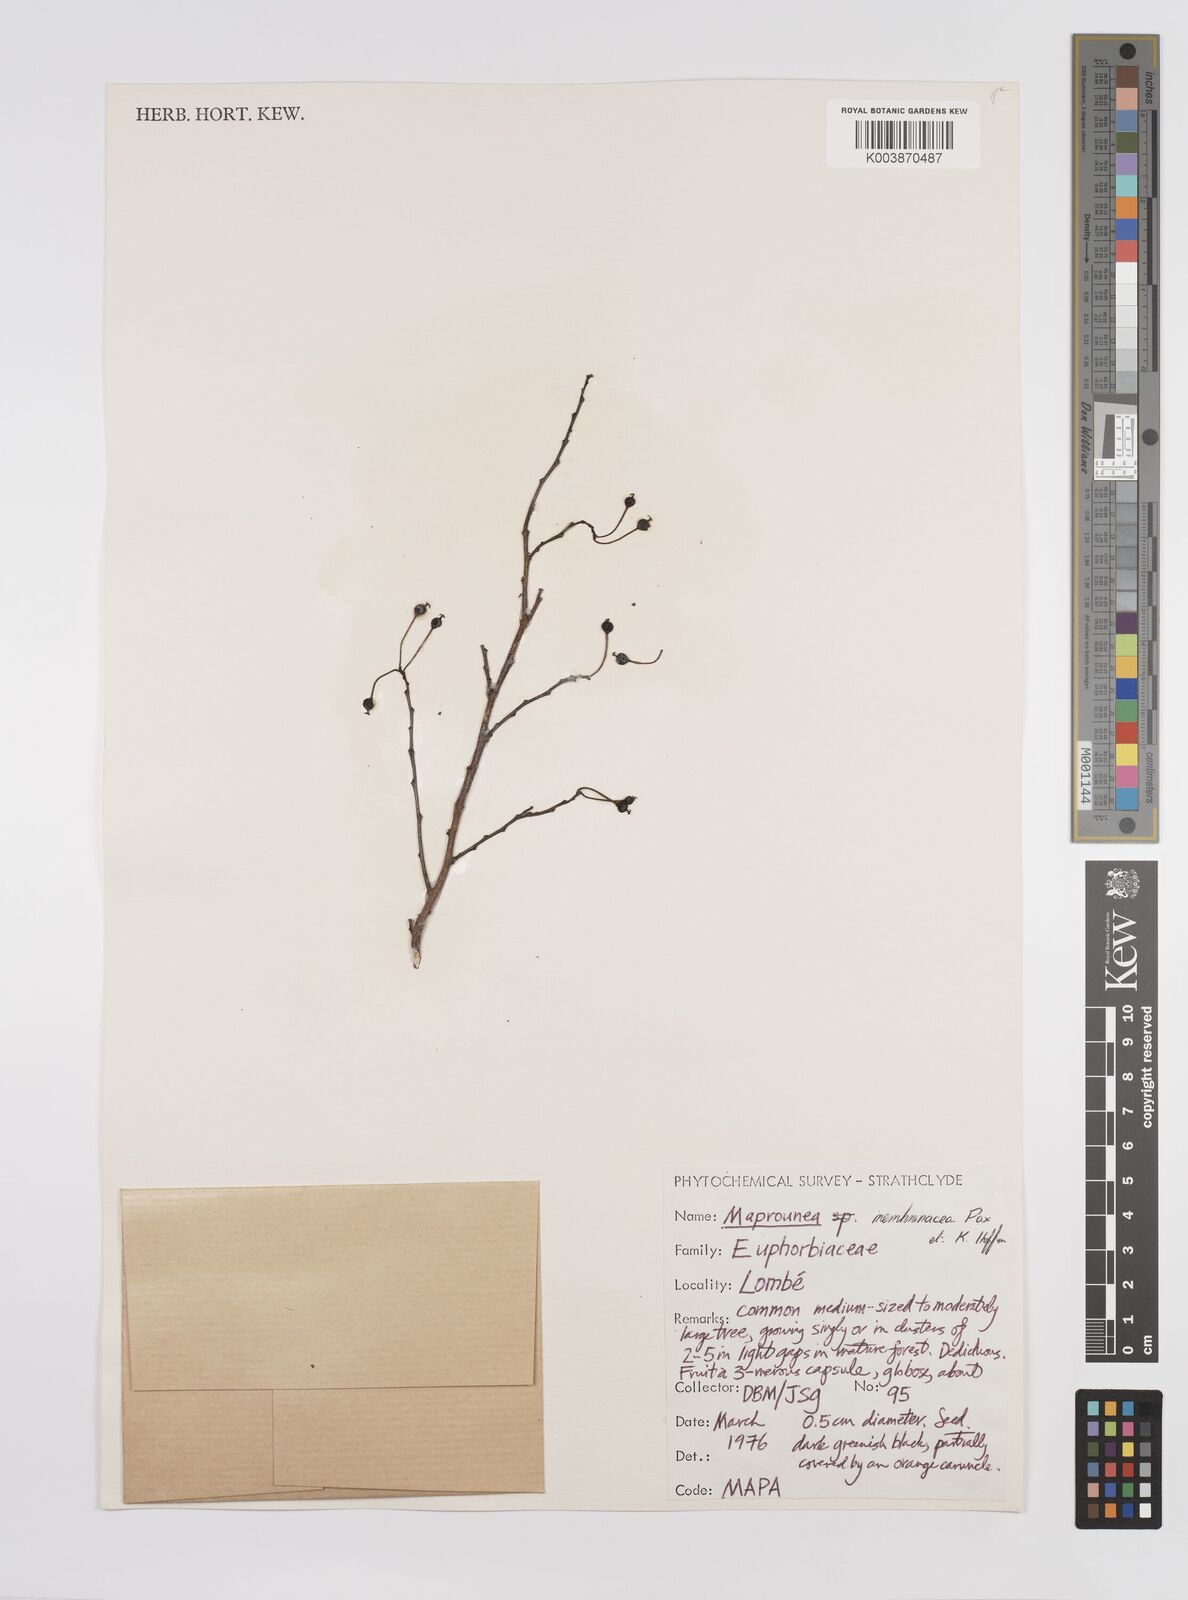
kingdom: Plantae
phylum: Tracheophyta
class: Magnoliopsida
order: Malpighiales
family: Euphorbiaceae
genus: Maprounea
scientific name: Maprounea membranacea
